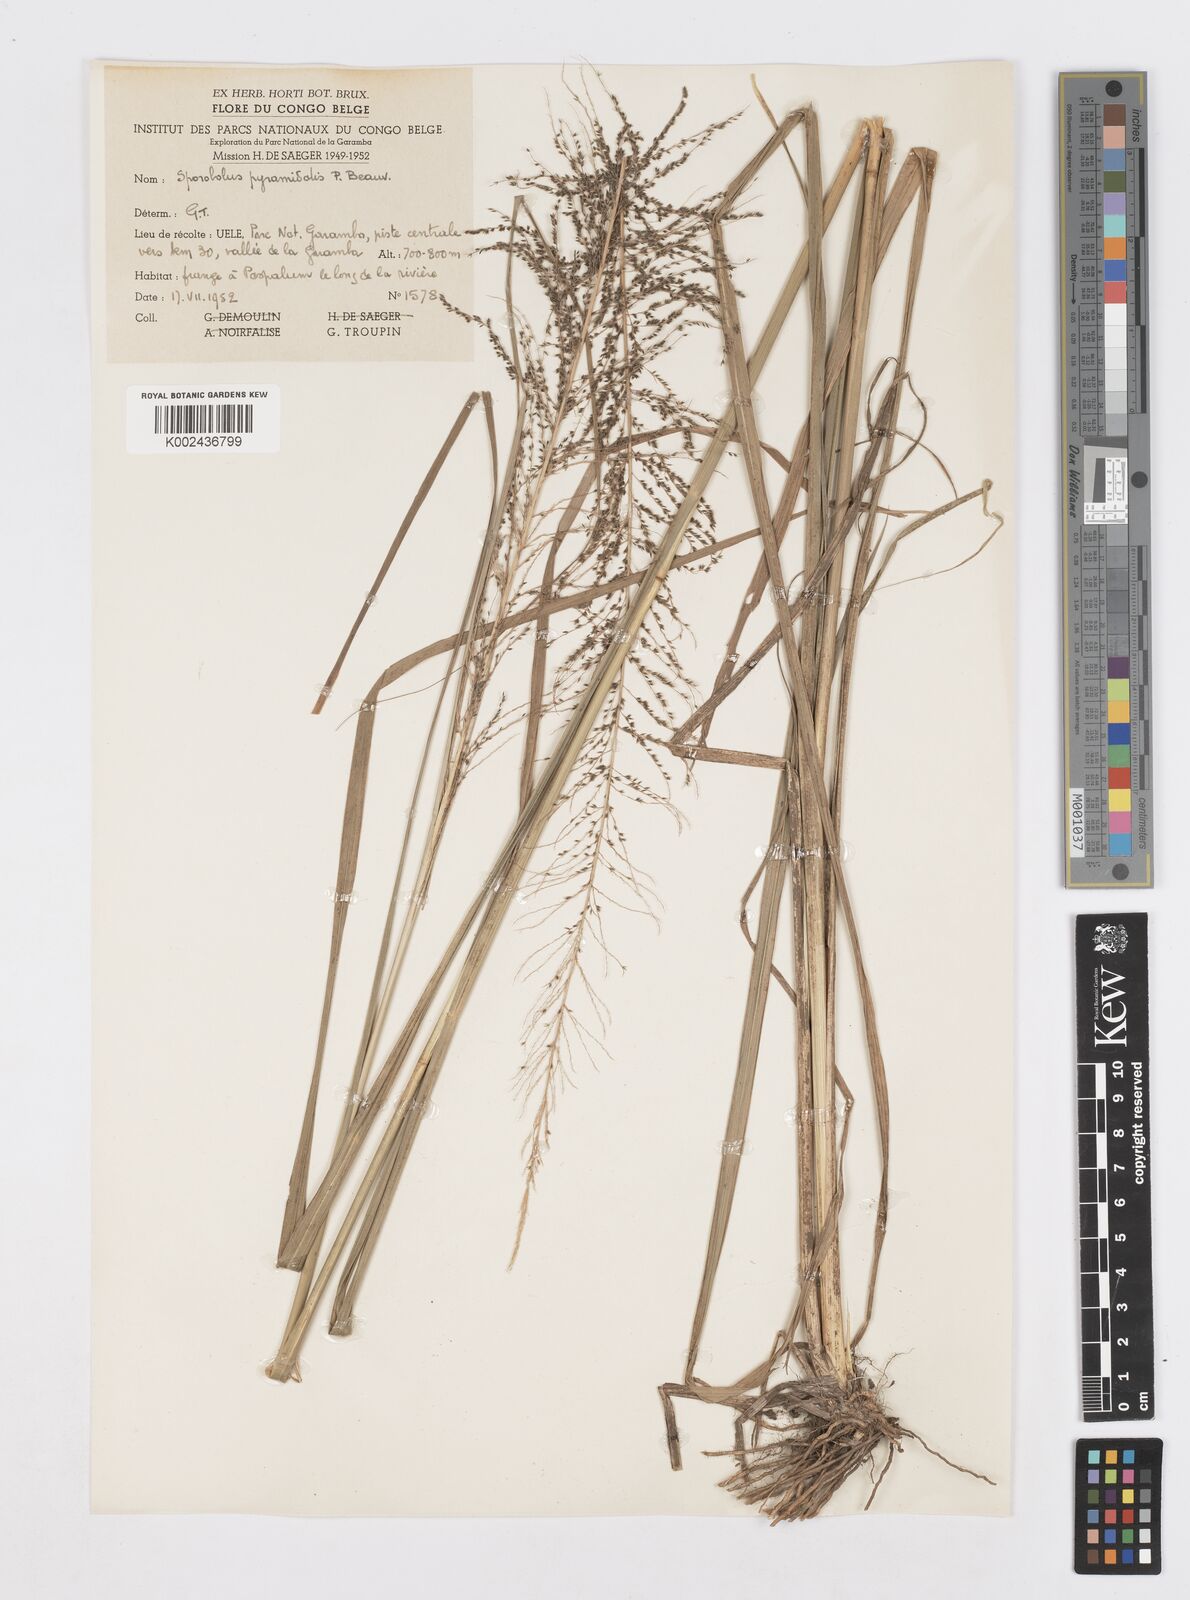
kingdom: Plantae
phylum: Tracheophyta
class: Liliopsida
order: Poales
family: Poaceae
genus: Sporobolus
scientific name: Sporobolus pyramidalis
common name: West indian dropseed
